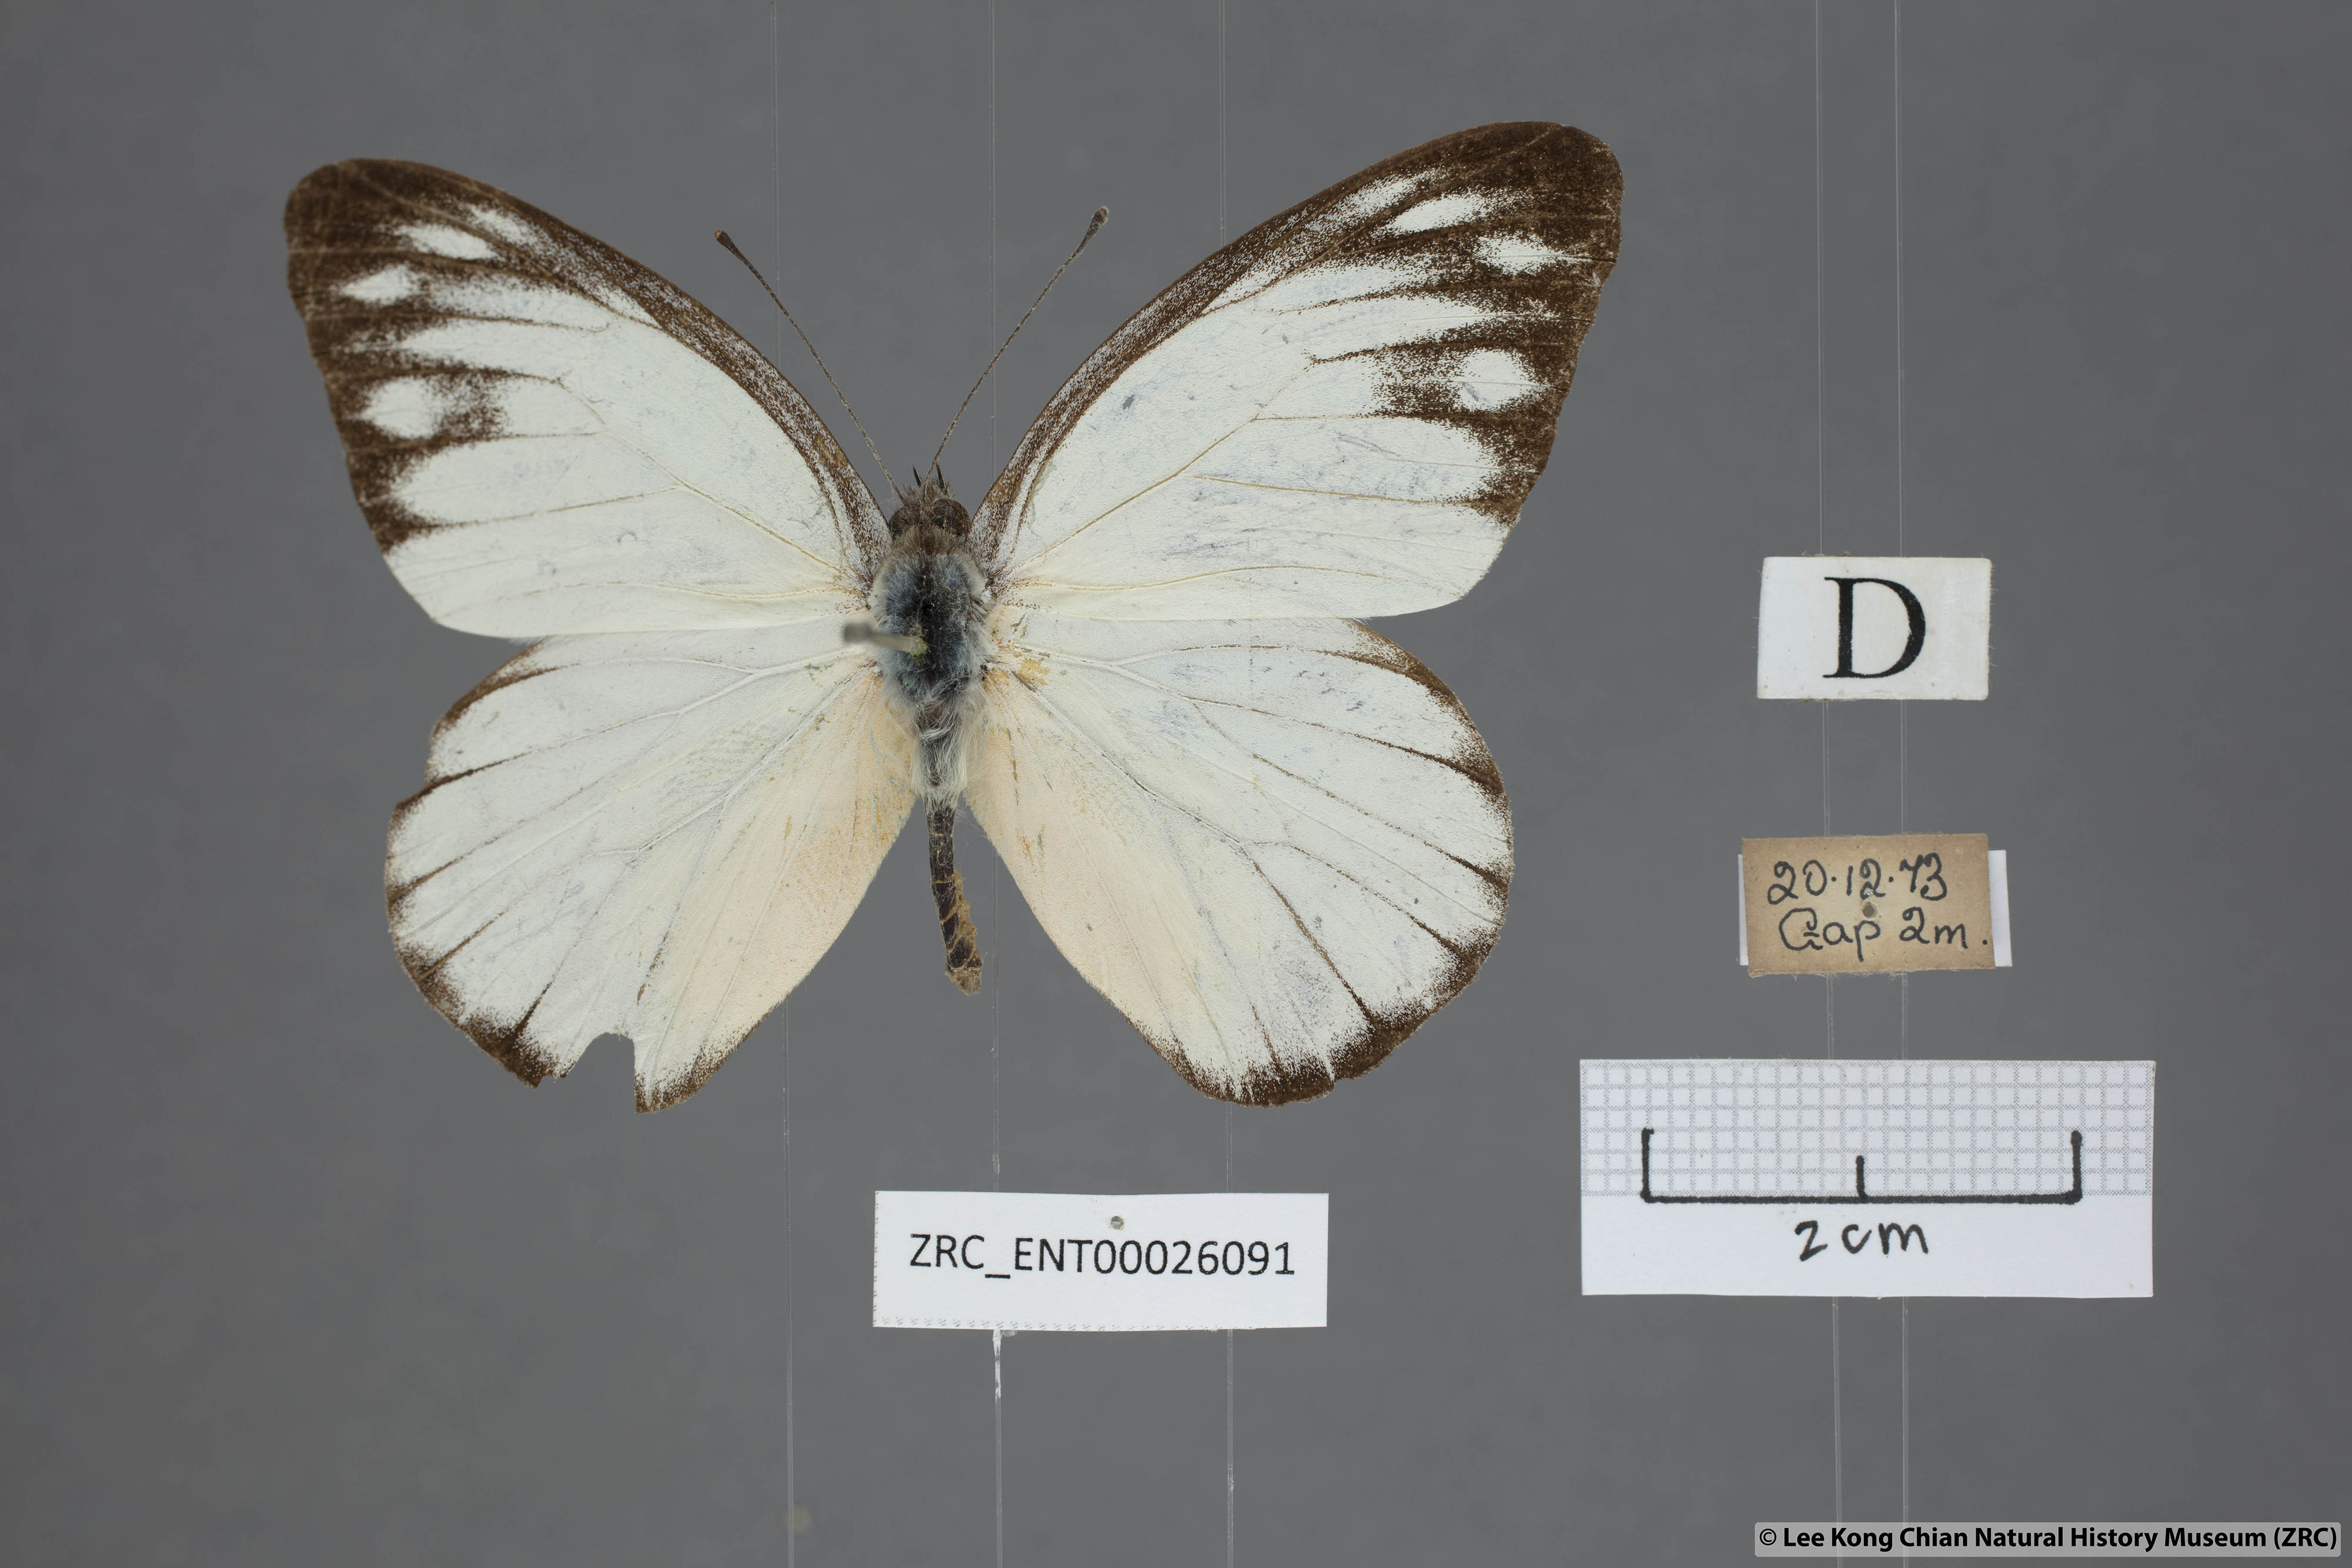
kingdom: Animalia
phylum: Arthropoda
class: Insecta
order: Lepidoptera
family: Pieridae
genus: Appias
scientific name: Appias cardena
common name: Yellow puffin
